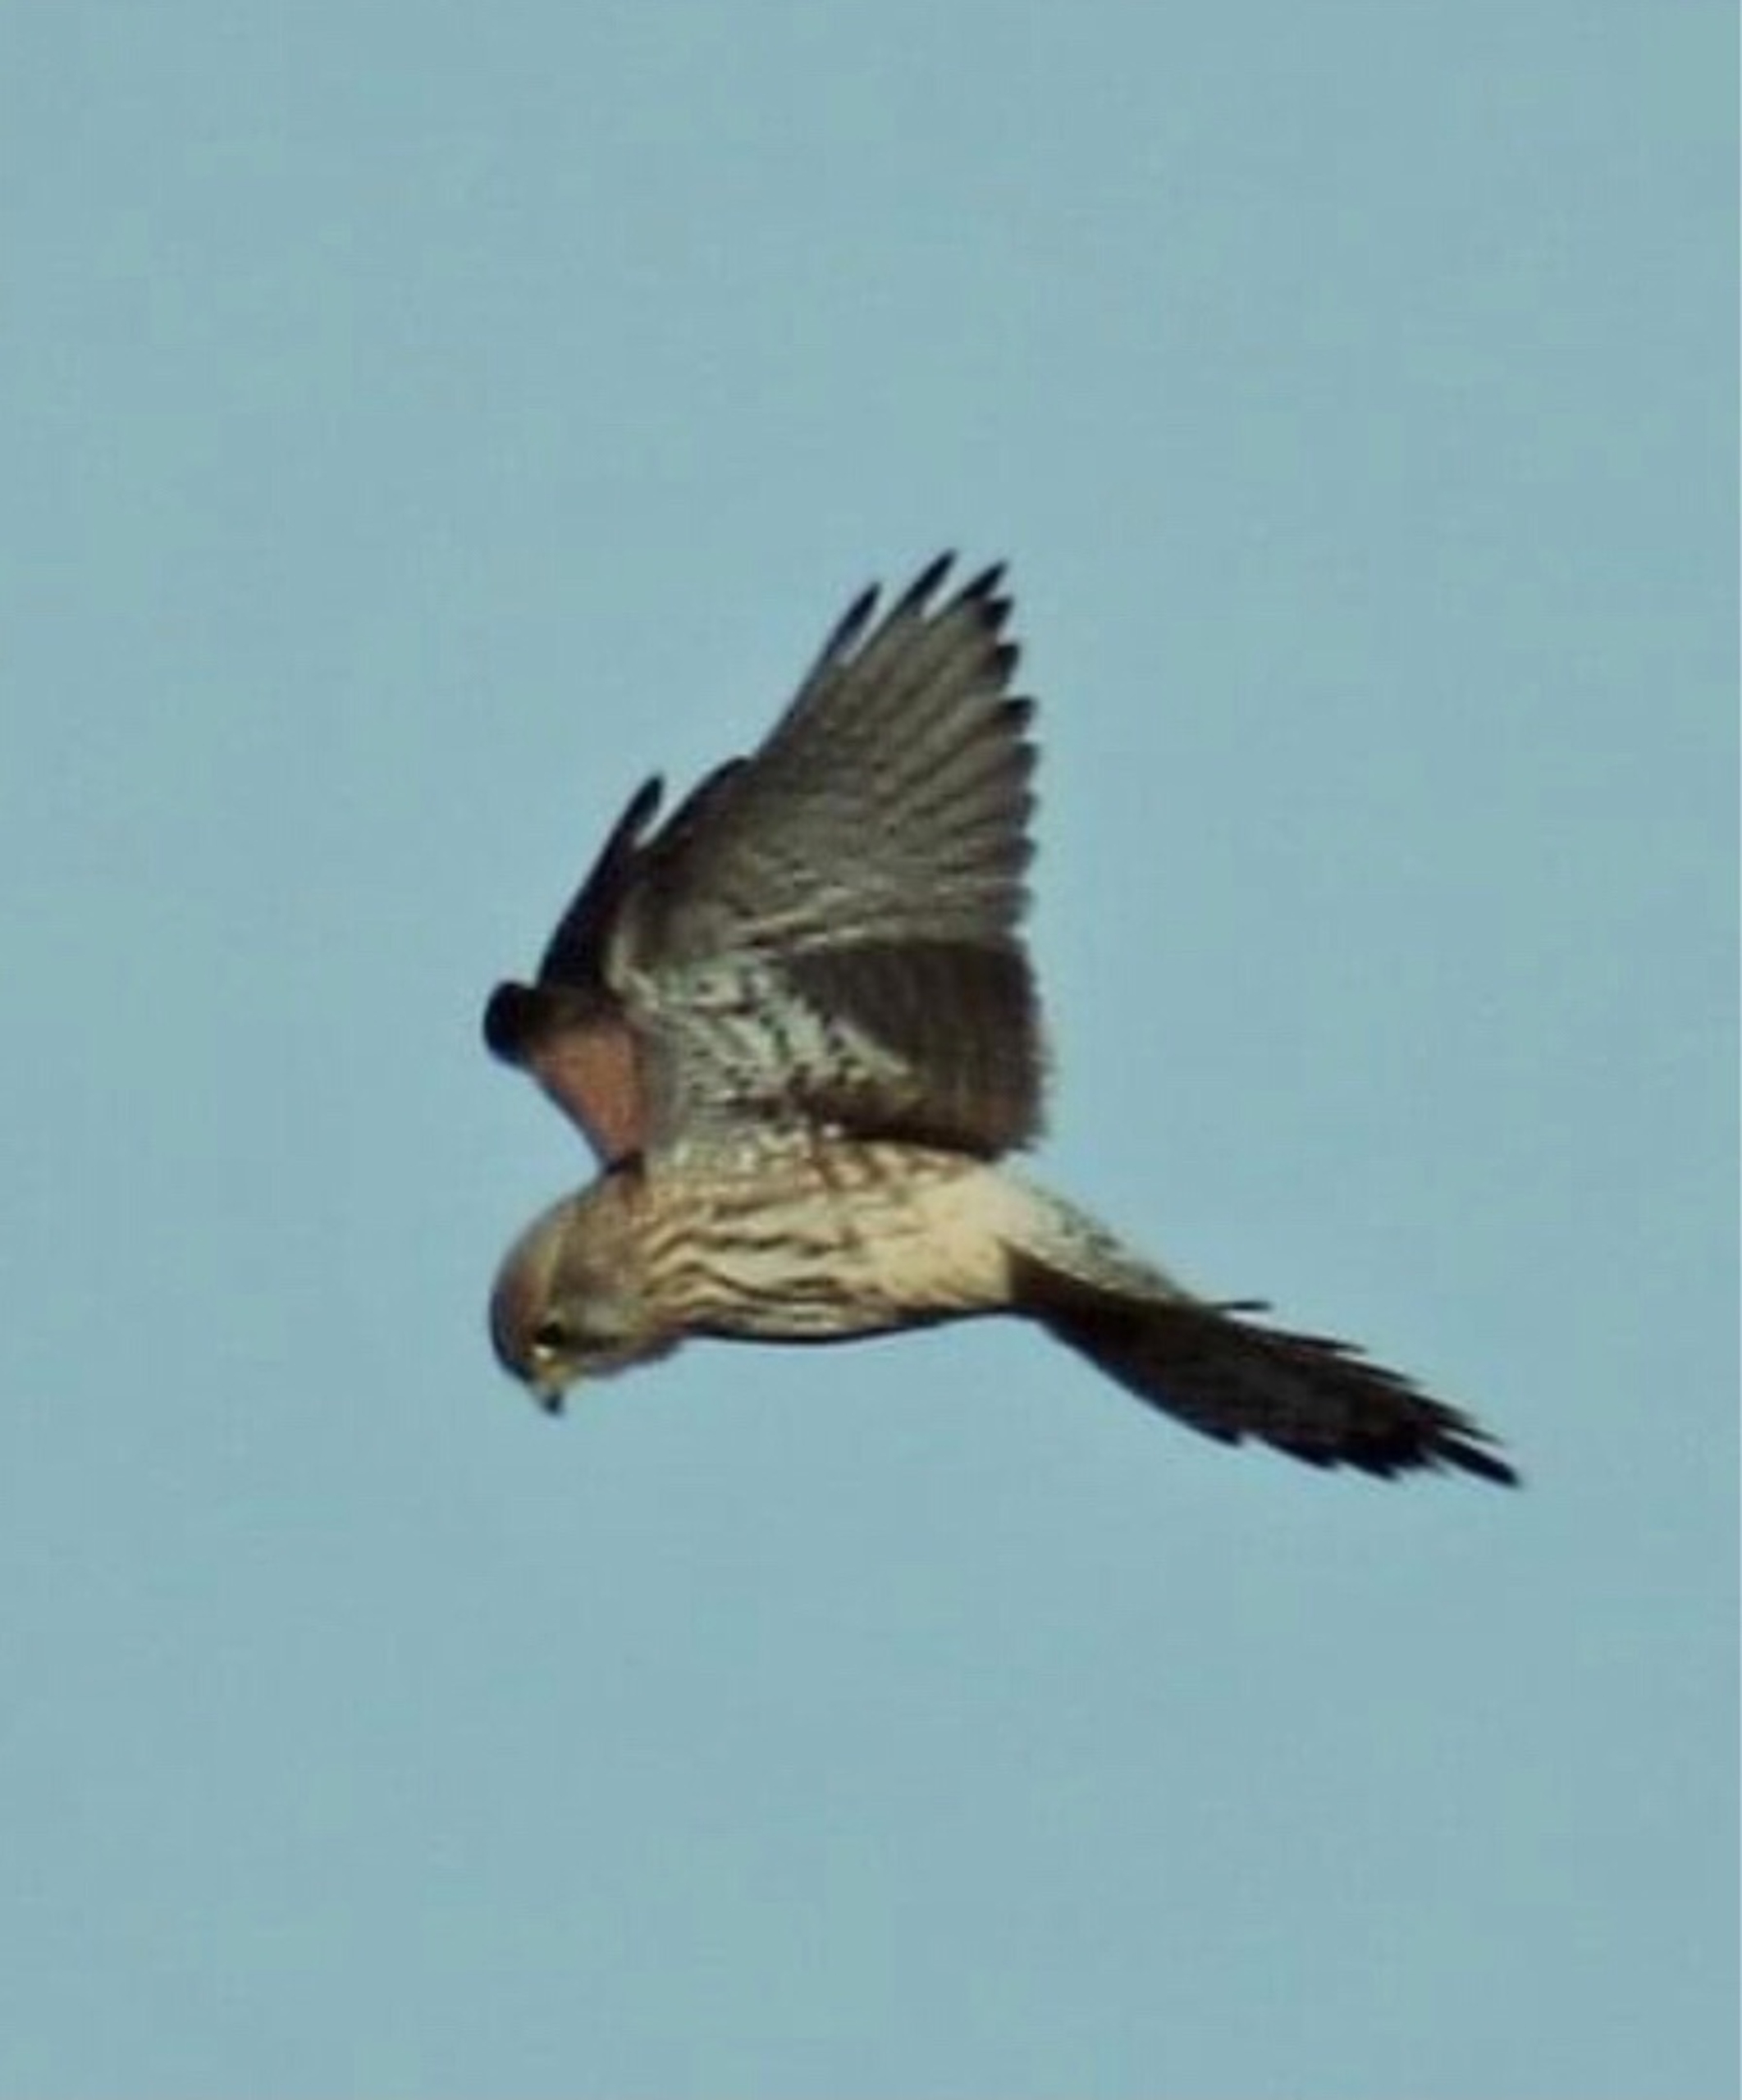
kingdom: Animalia
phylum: Chordata
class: Aves
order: Falconiformes
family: Falconidae
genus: Falco
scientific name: Falco tinnunculus
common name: Tårnfalk
